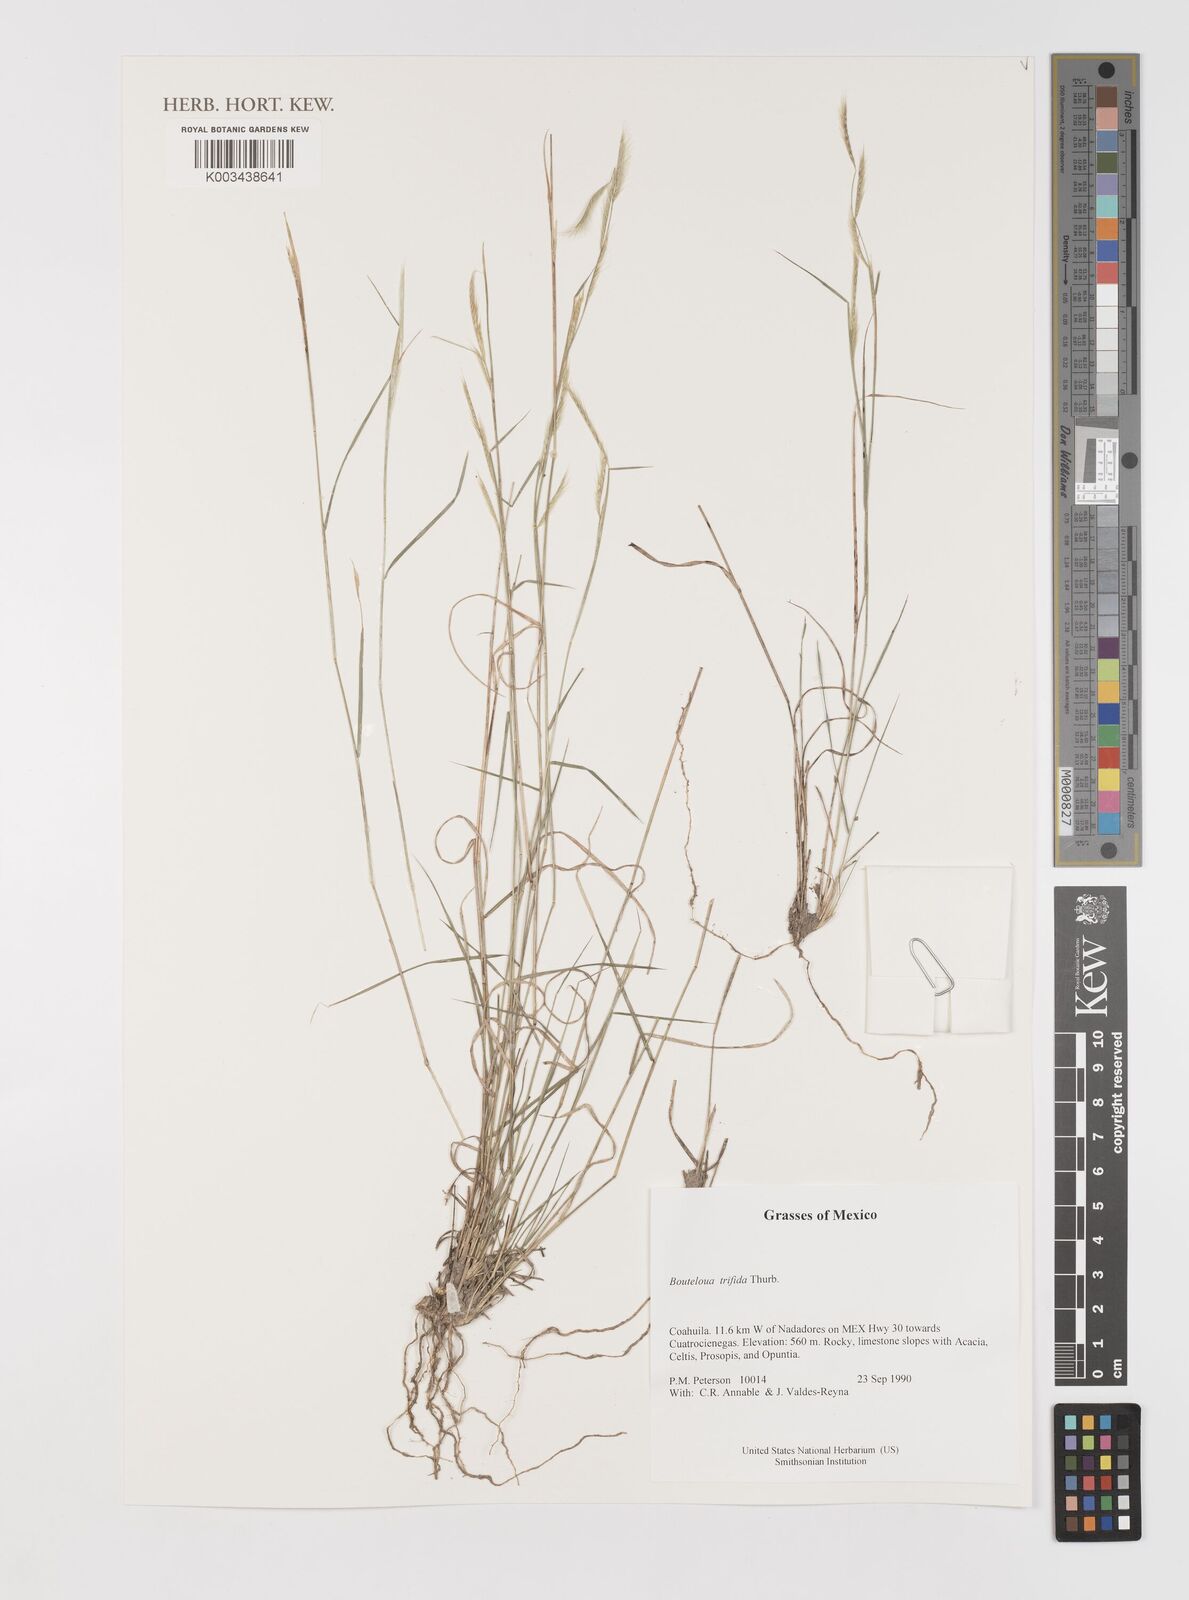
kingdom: Plantae
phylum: Tracheophyta
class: Liliopsida
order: Poales
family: Poaceae
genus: Bouteloua
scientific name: Bouteloua
